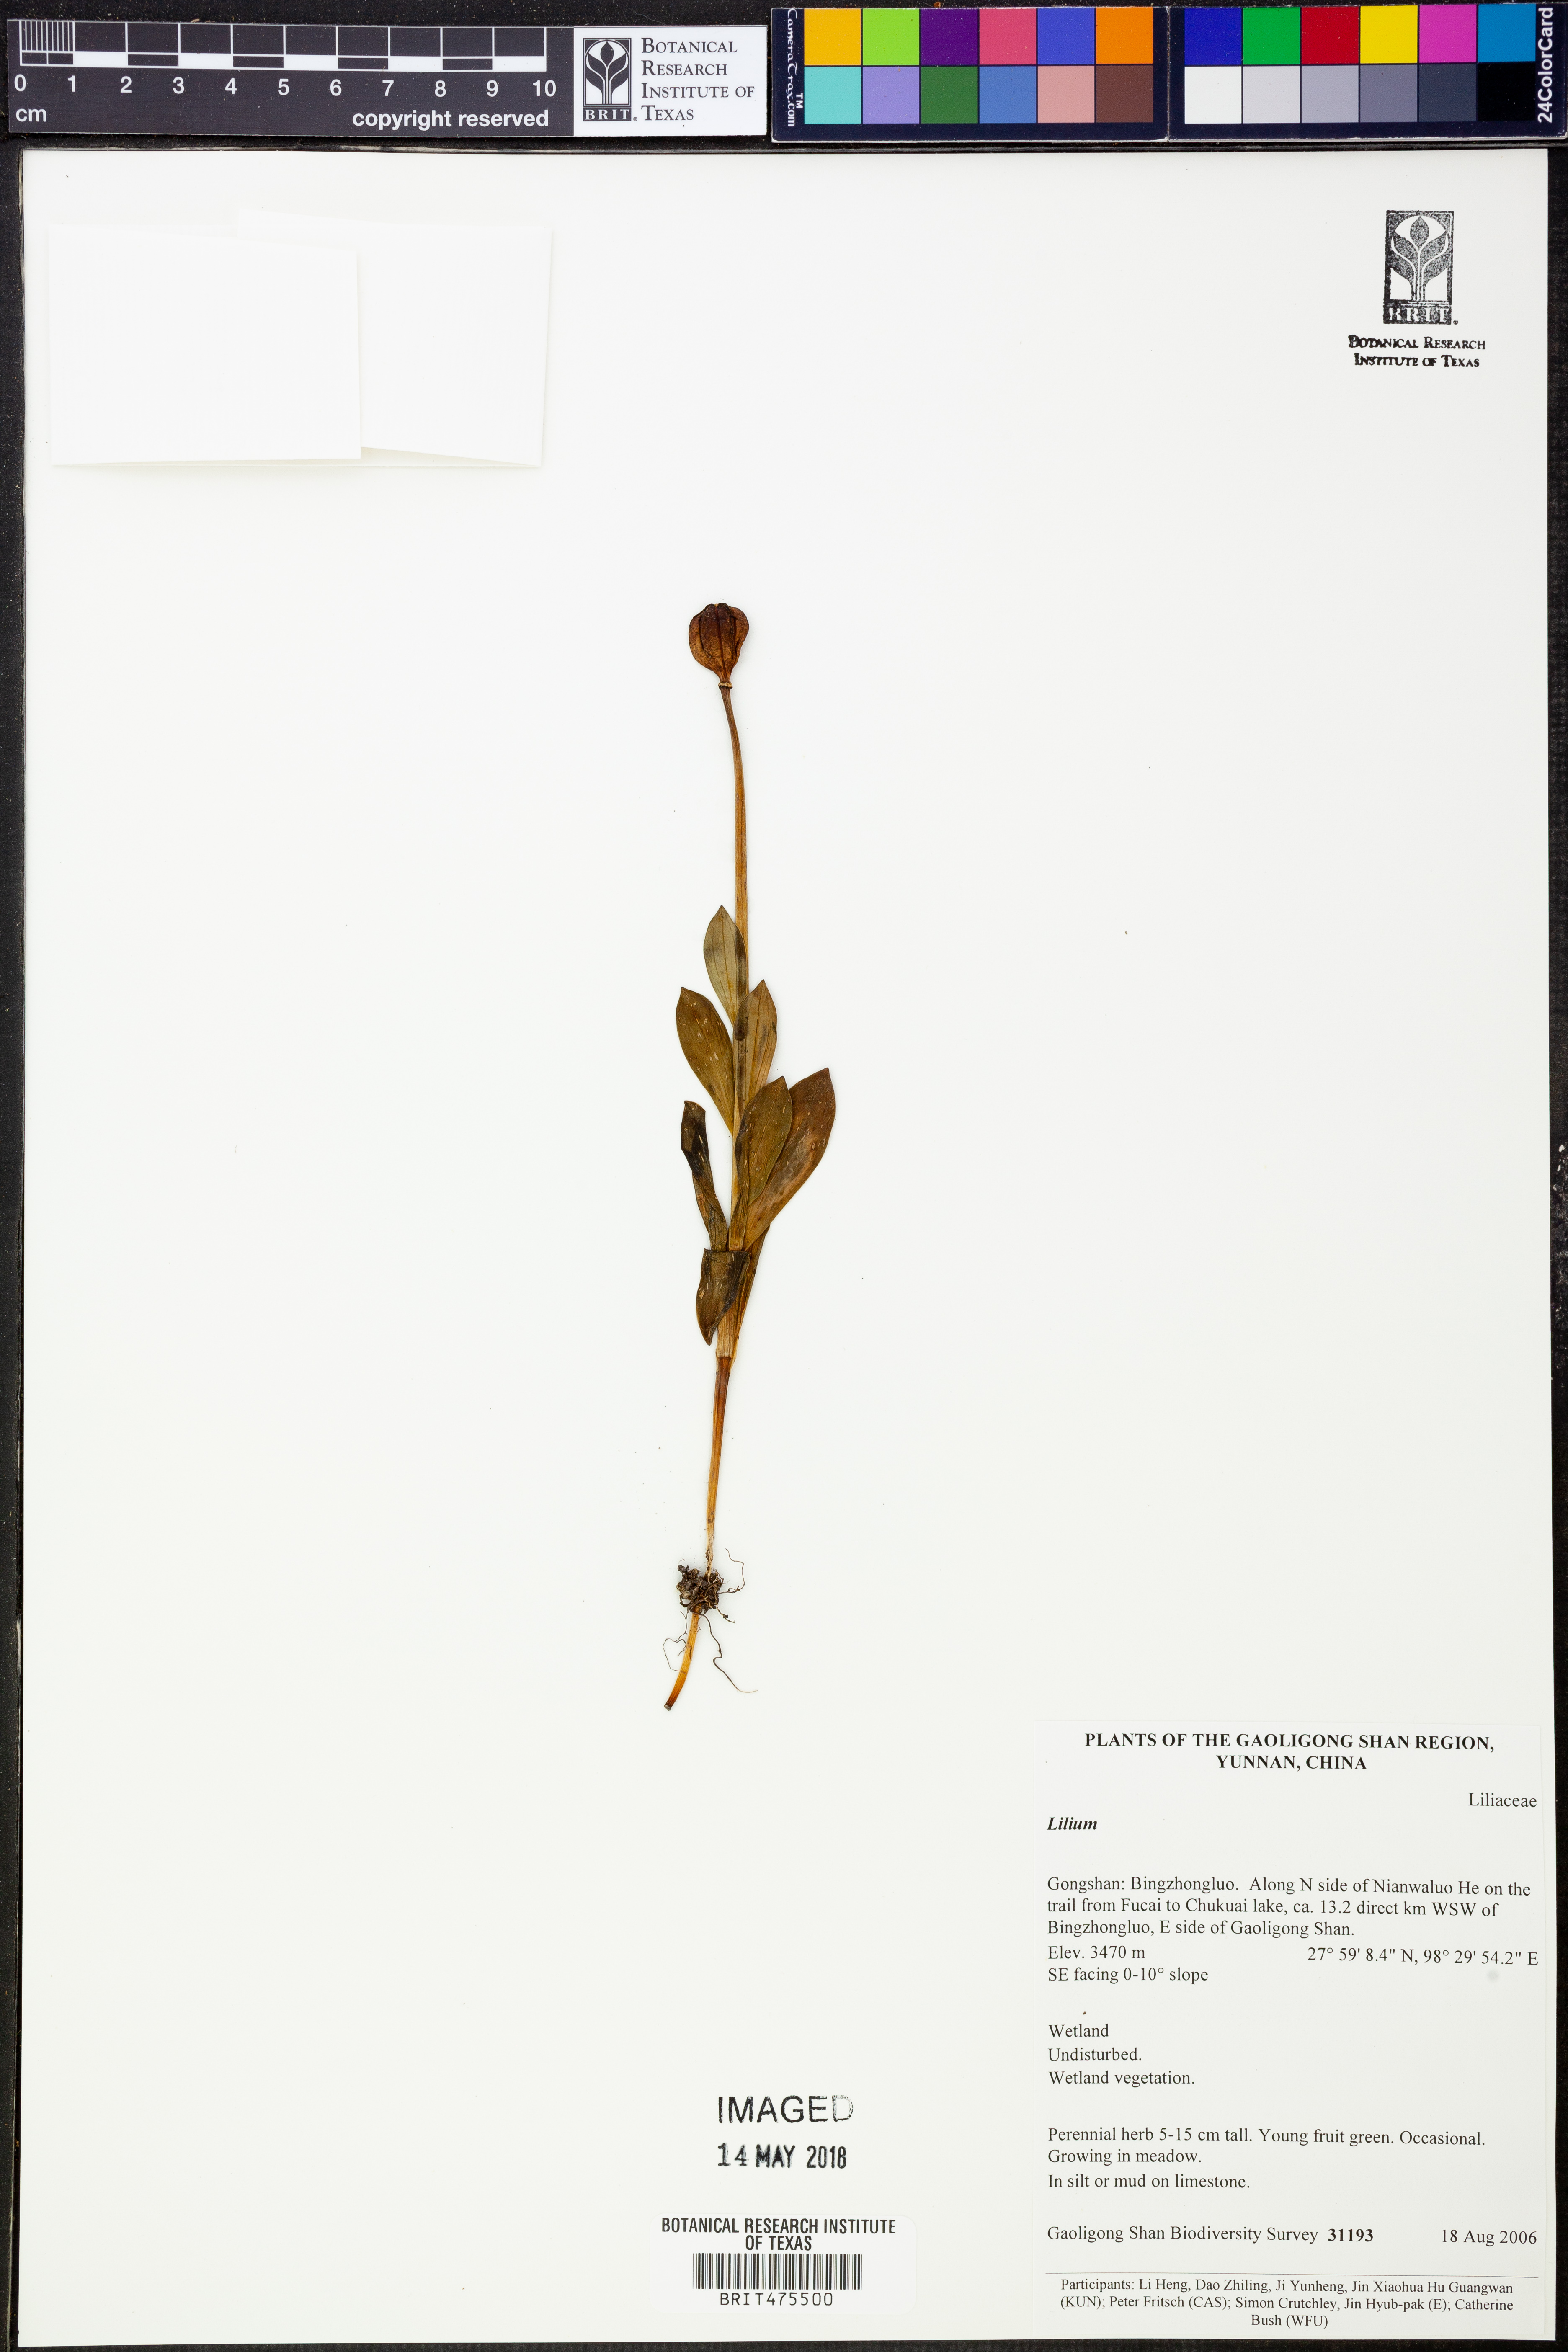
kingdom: Plantae
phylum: Tracheophyta
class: Liliopsida
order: Liliales
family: Liliaceae
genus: Lilium
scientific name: Lilium
